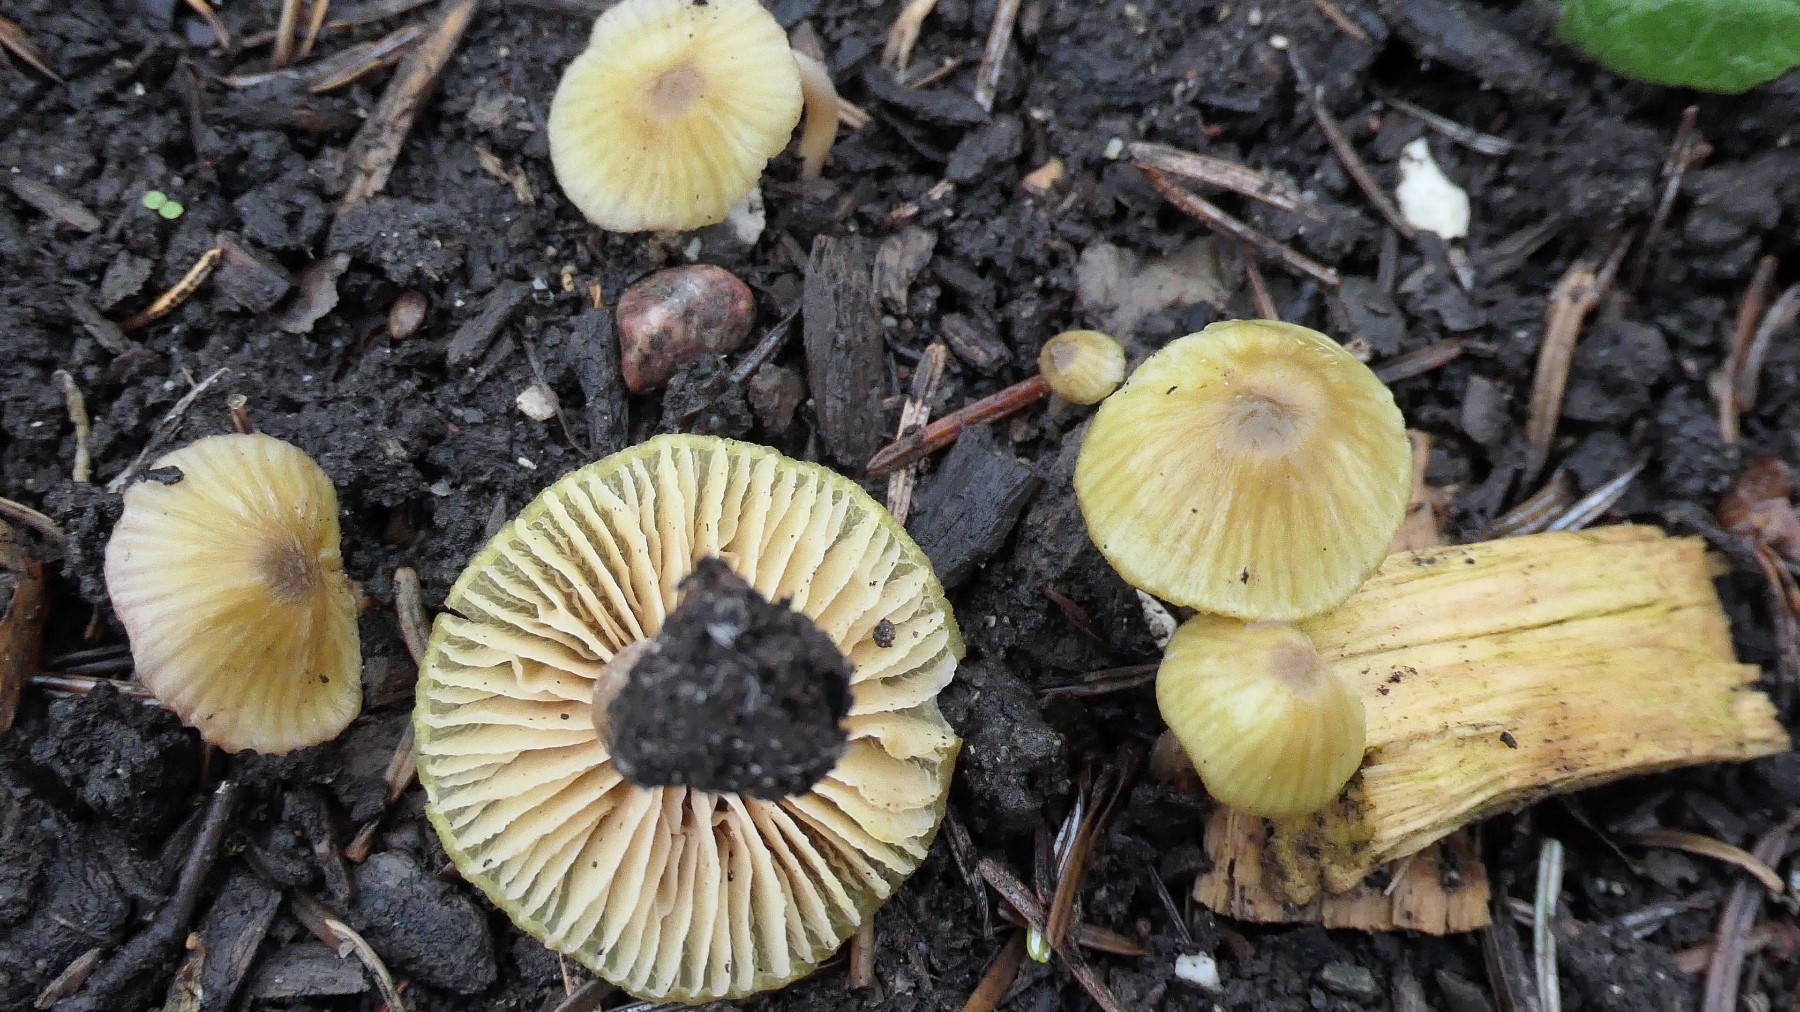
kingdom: Fungi
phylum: Basidiomycota
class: Agaricomycetes
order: Agaricales
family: Entolomataceae
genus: Entoloma
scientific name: Entoloma pleopodium
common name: duftende rødblad
